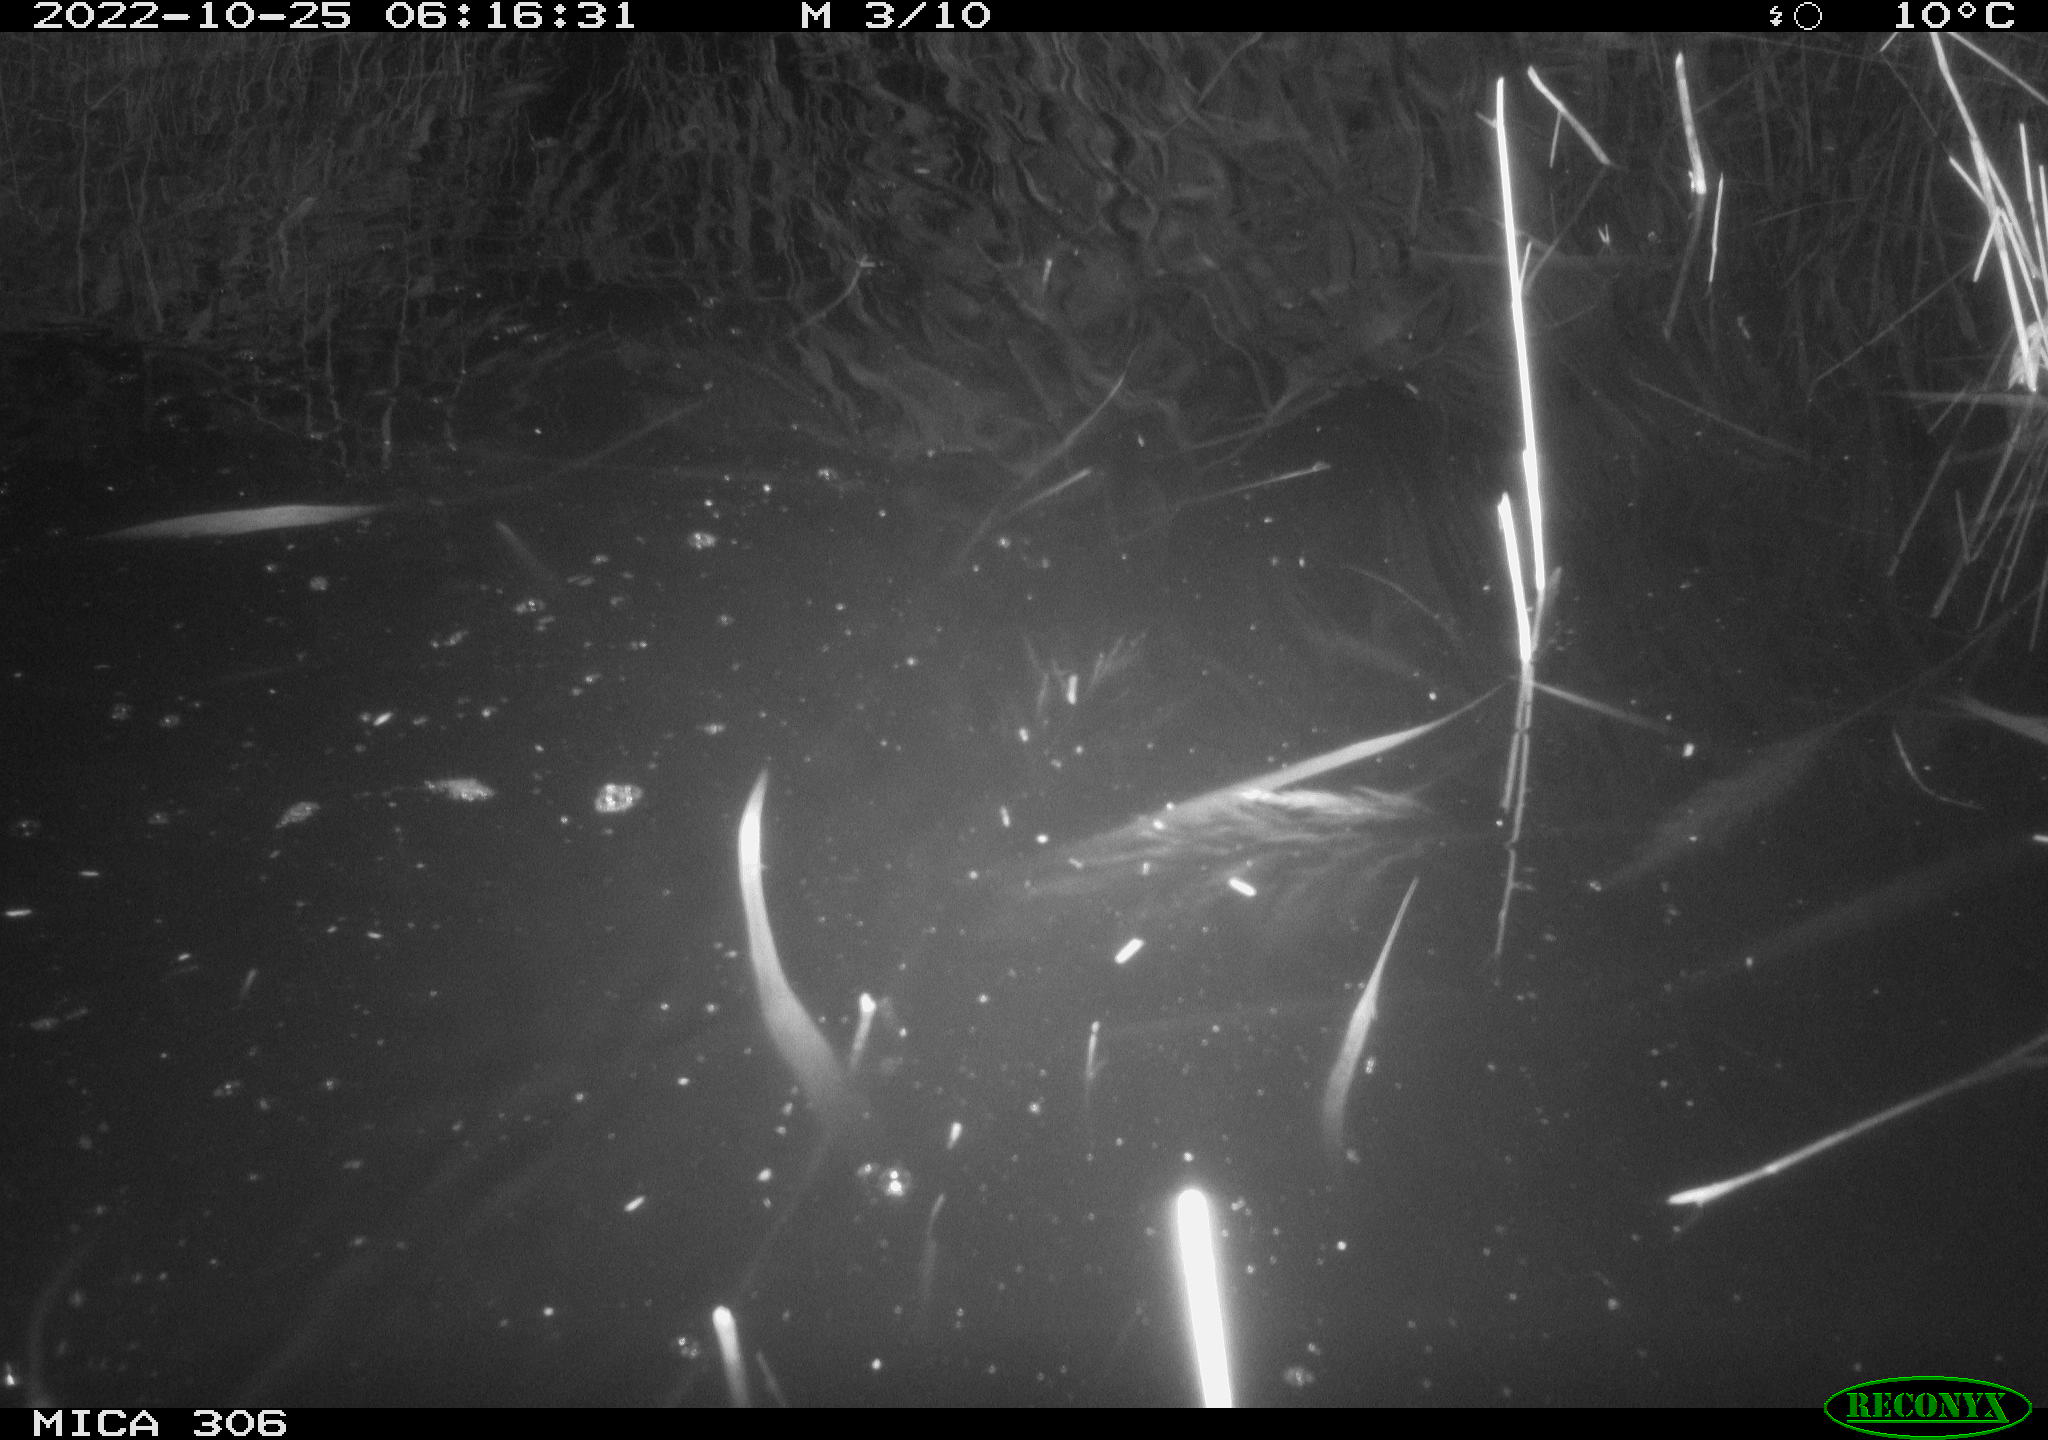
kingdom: Animalia
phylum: Chordata
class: Mammalia
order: Rodentia
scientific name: Rodentia
